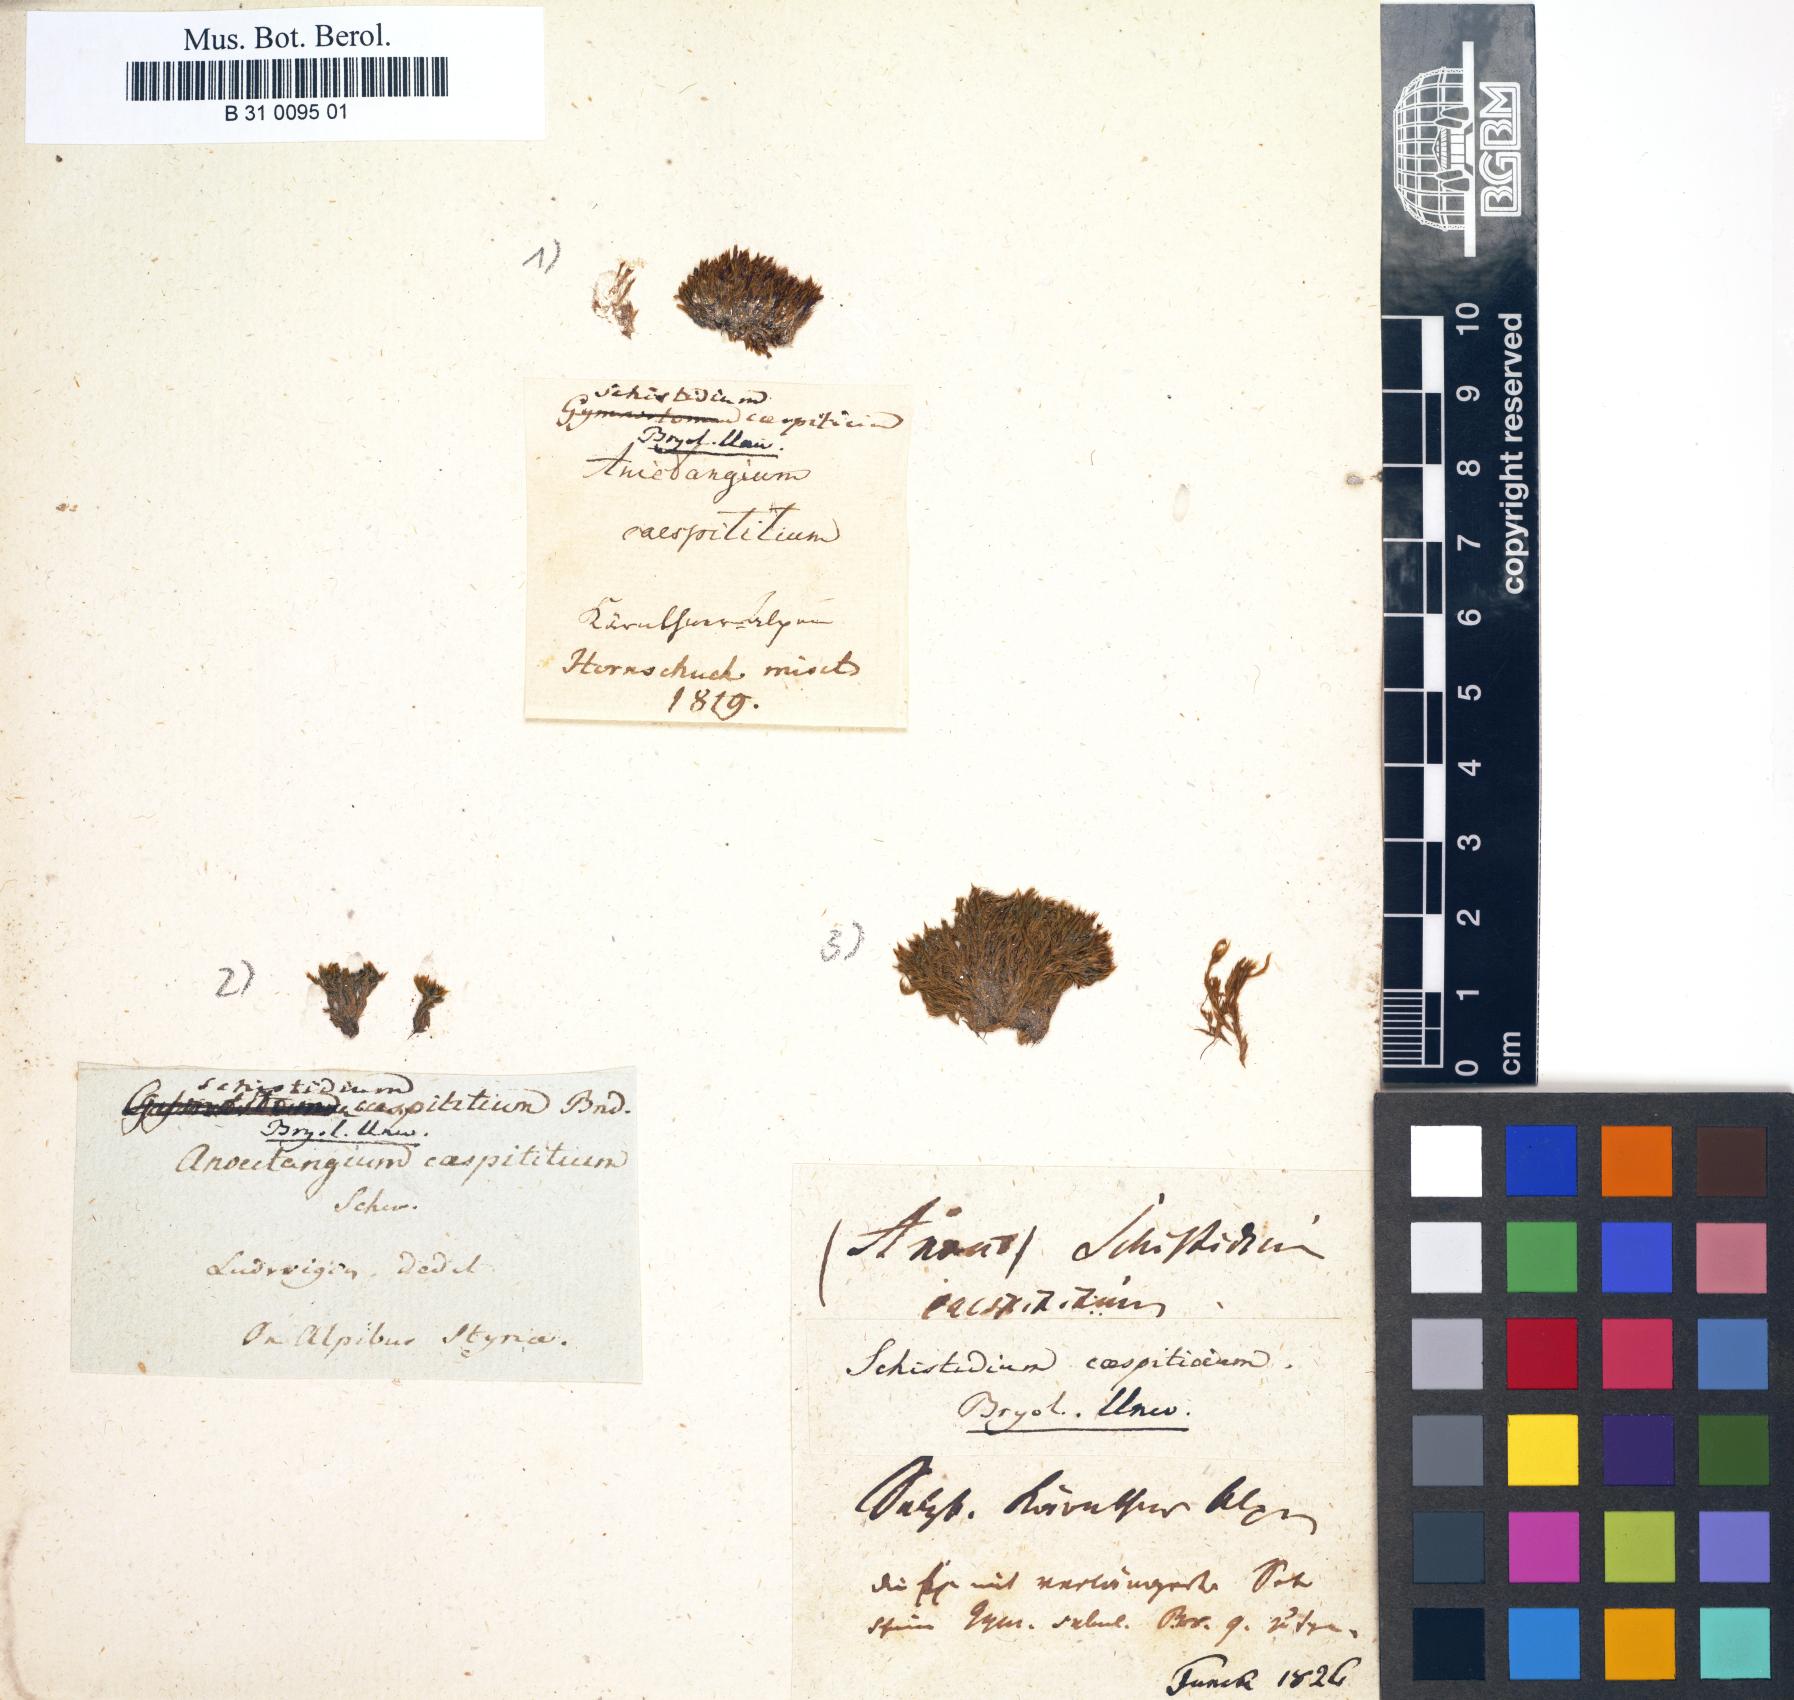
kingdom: Plantae
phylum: Bryophyta
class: Bryopsida
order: Grimmiales
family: Seligeriaceae
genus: Blindia
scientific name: Blindia caespiticia
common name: Dwarf blindia
